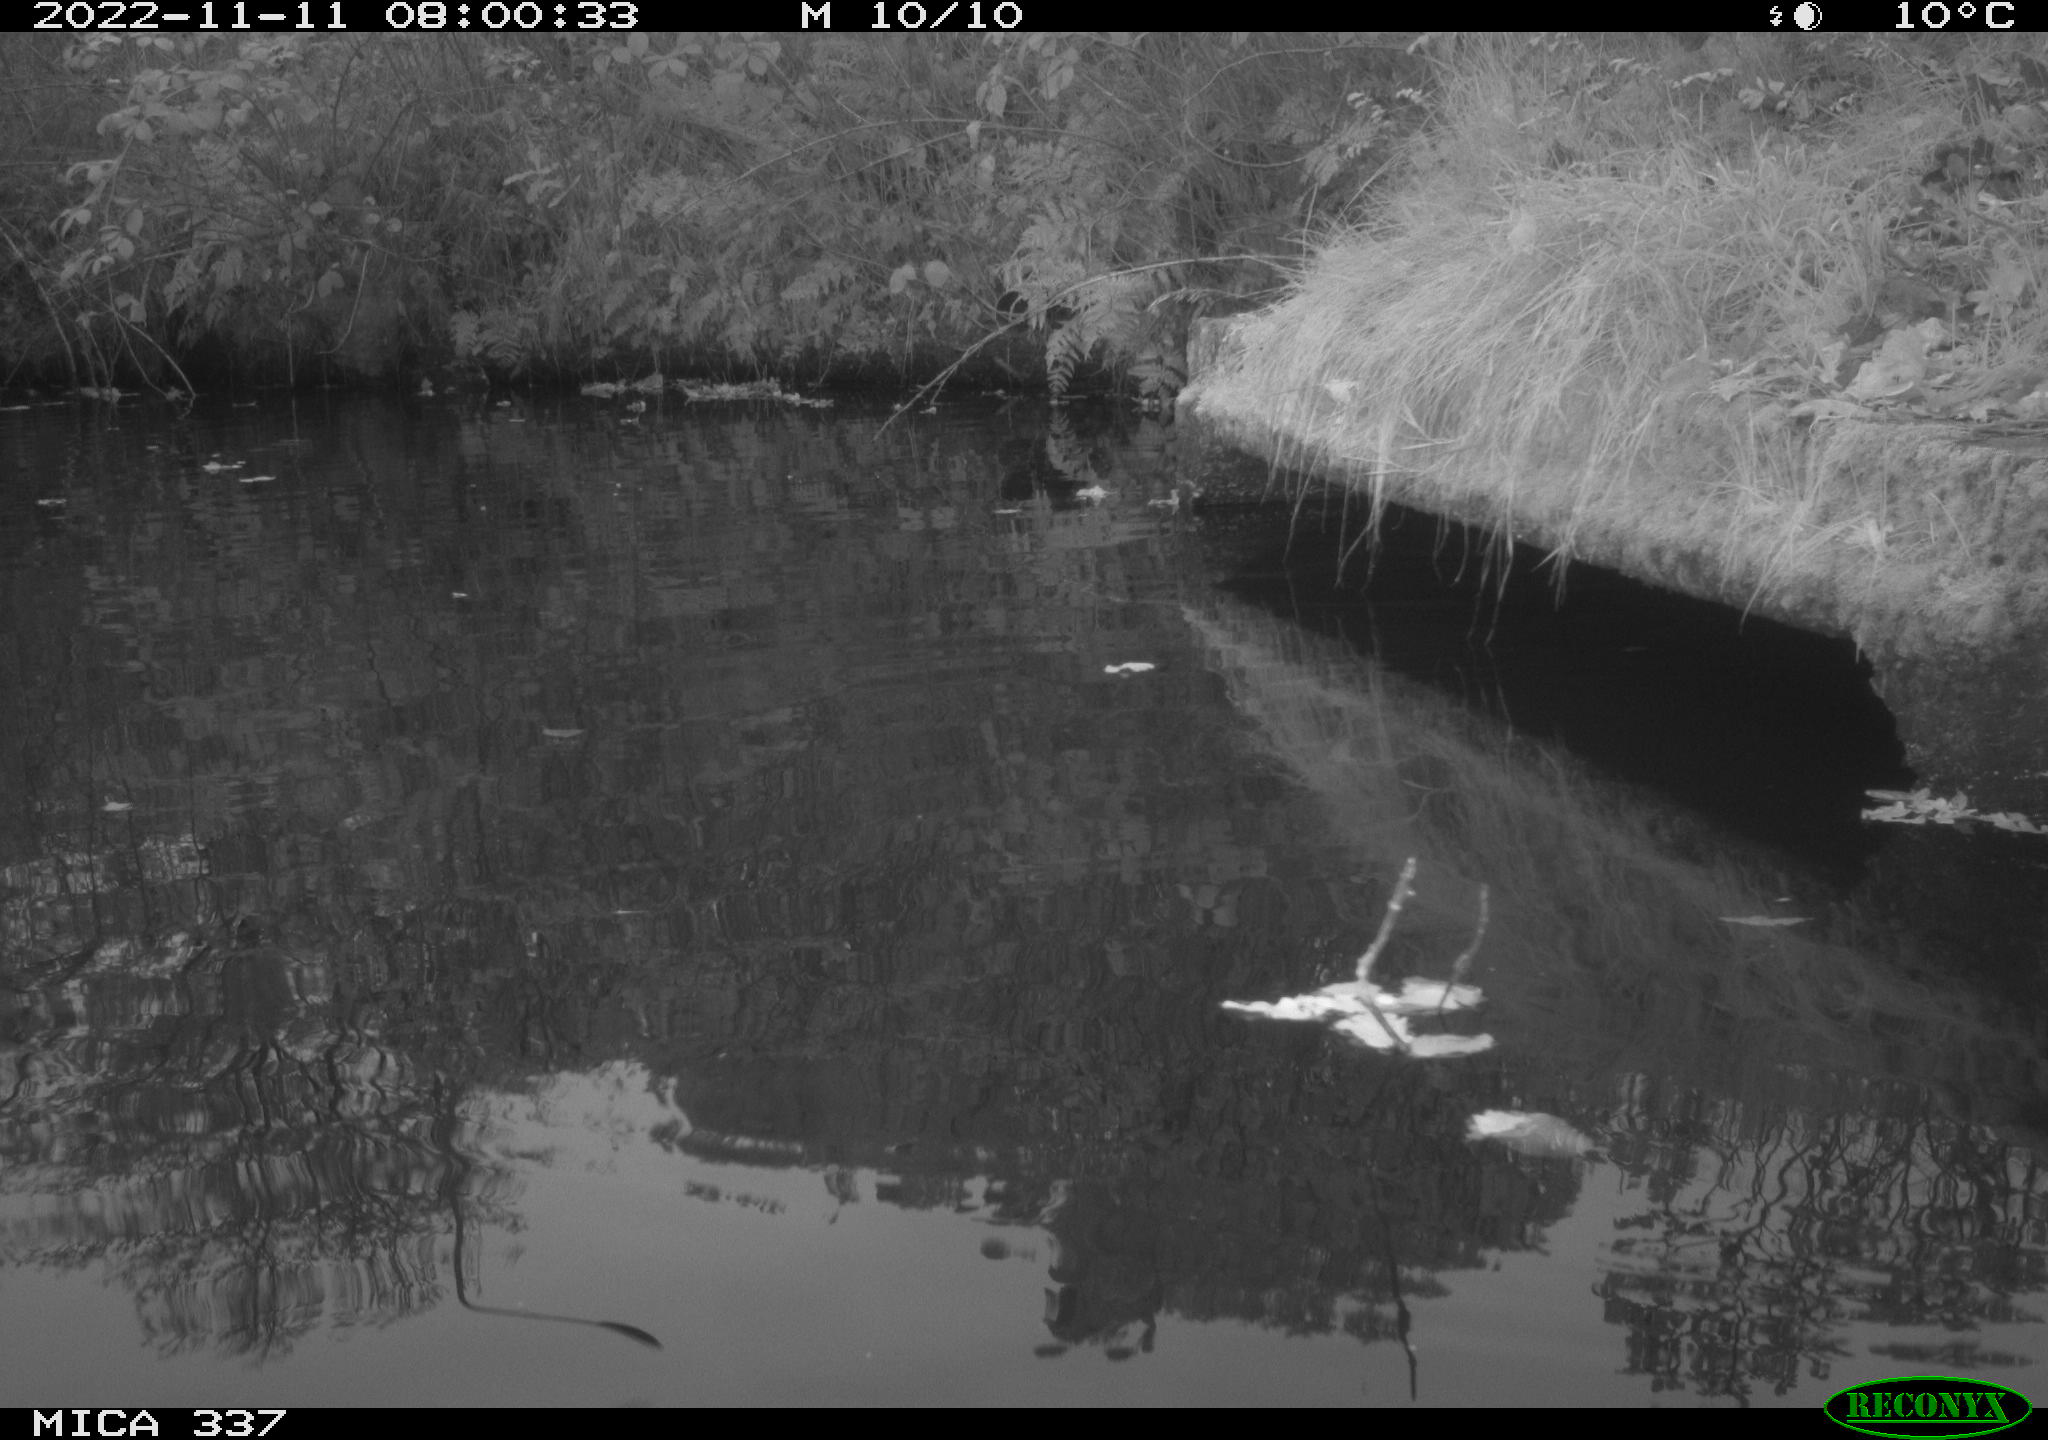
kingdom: Animalia
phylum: Chordata
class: Aves
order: Gruiformes
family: Rallidae
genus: Gallinula
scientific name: Gallinula chloropus
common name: Common moorhen
